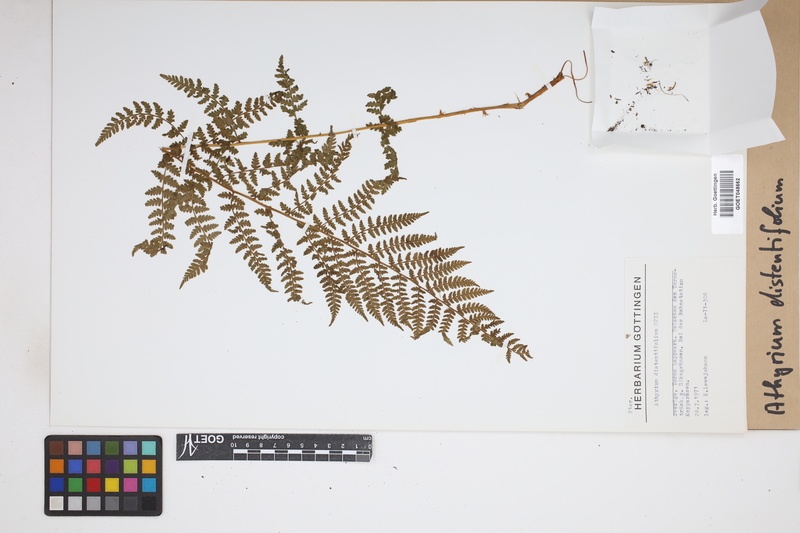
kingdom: Plantae
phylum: Tracheophyta
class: Polypodiopsida
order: Polypodiales
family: Athyriaceae
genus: Pseudathyrium
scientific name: Pseudathyrium alpestre
